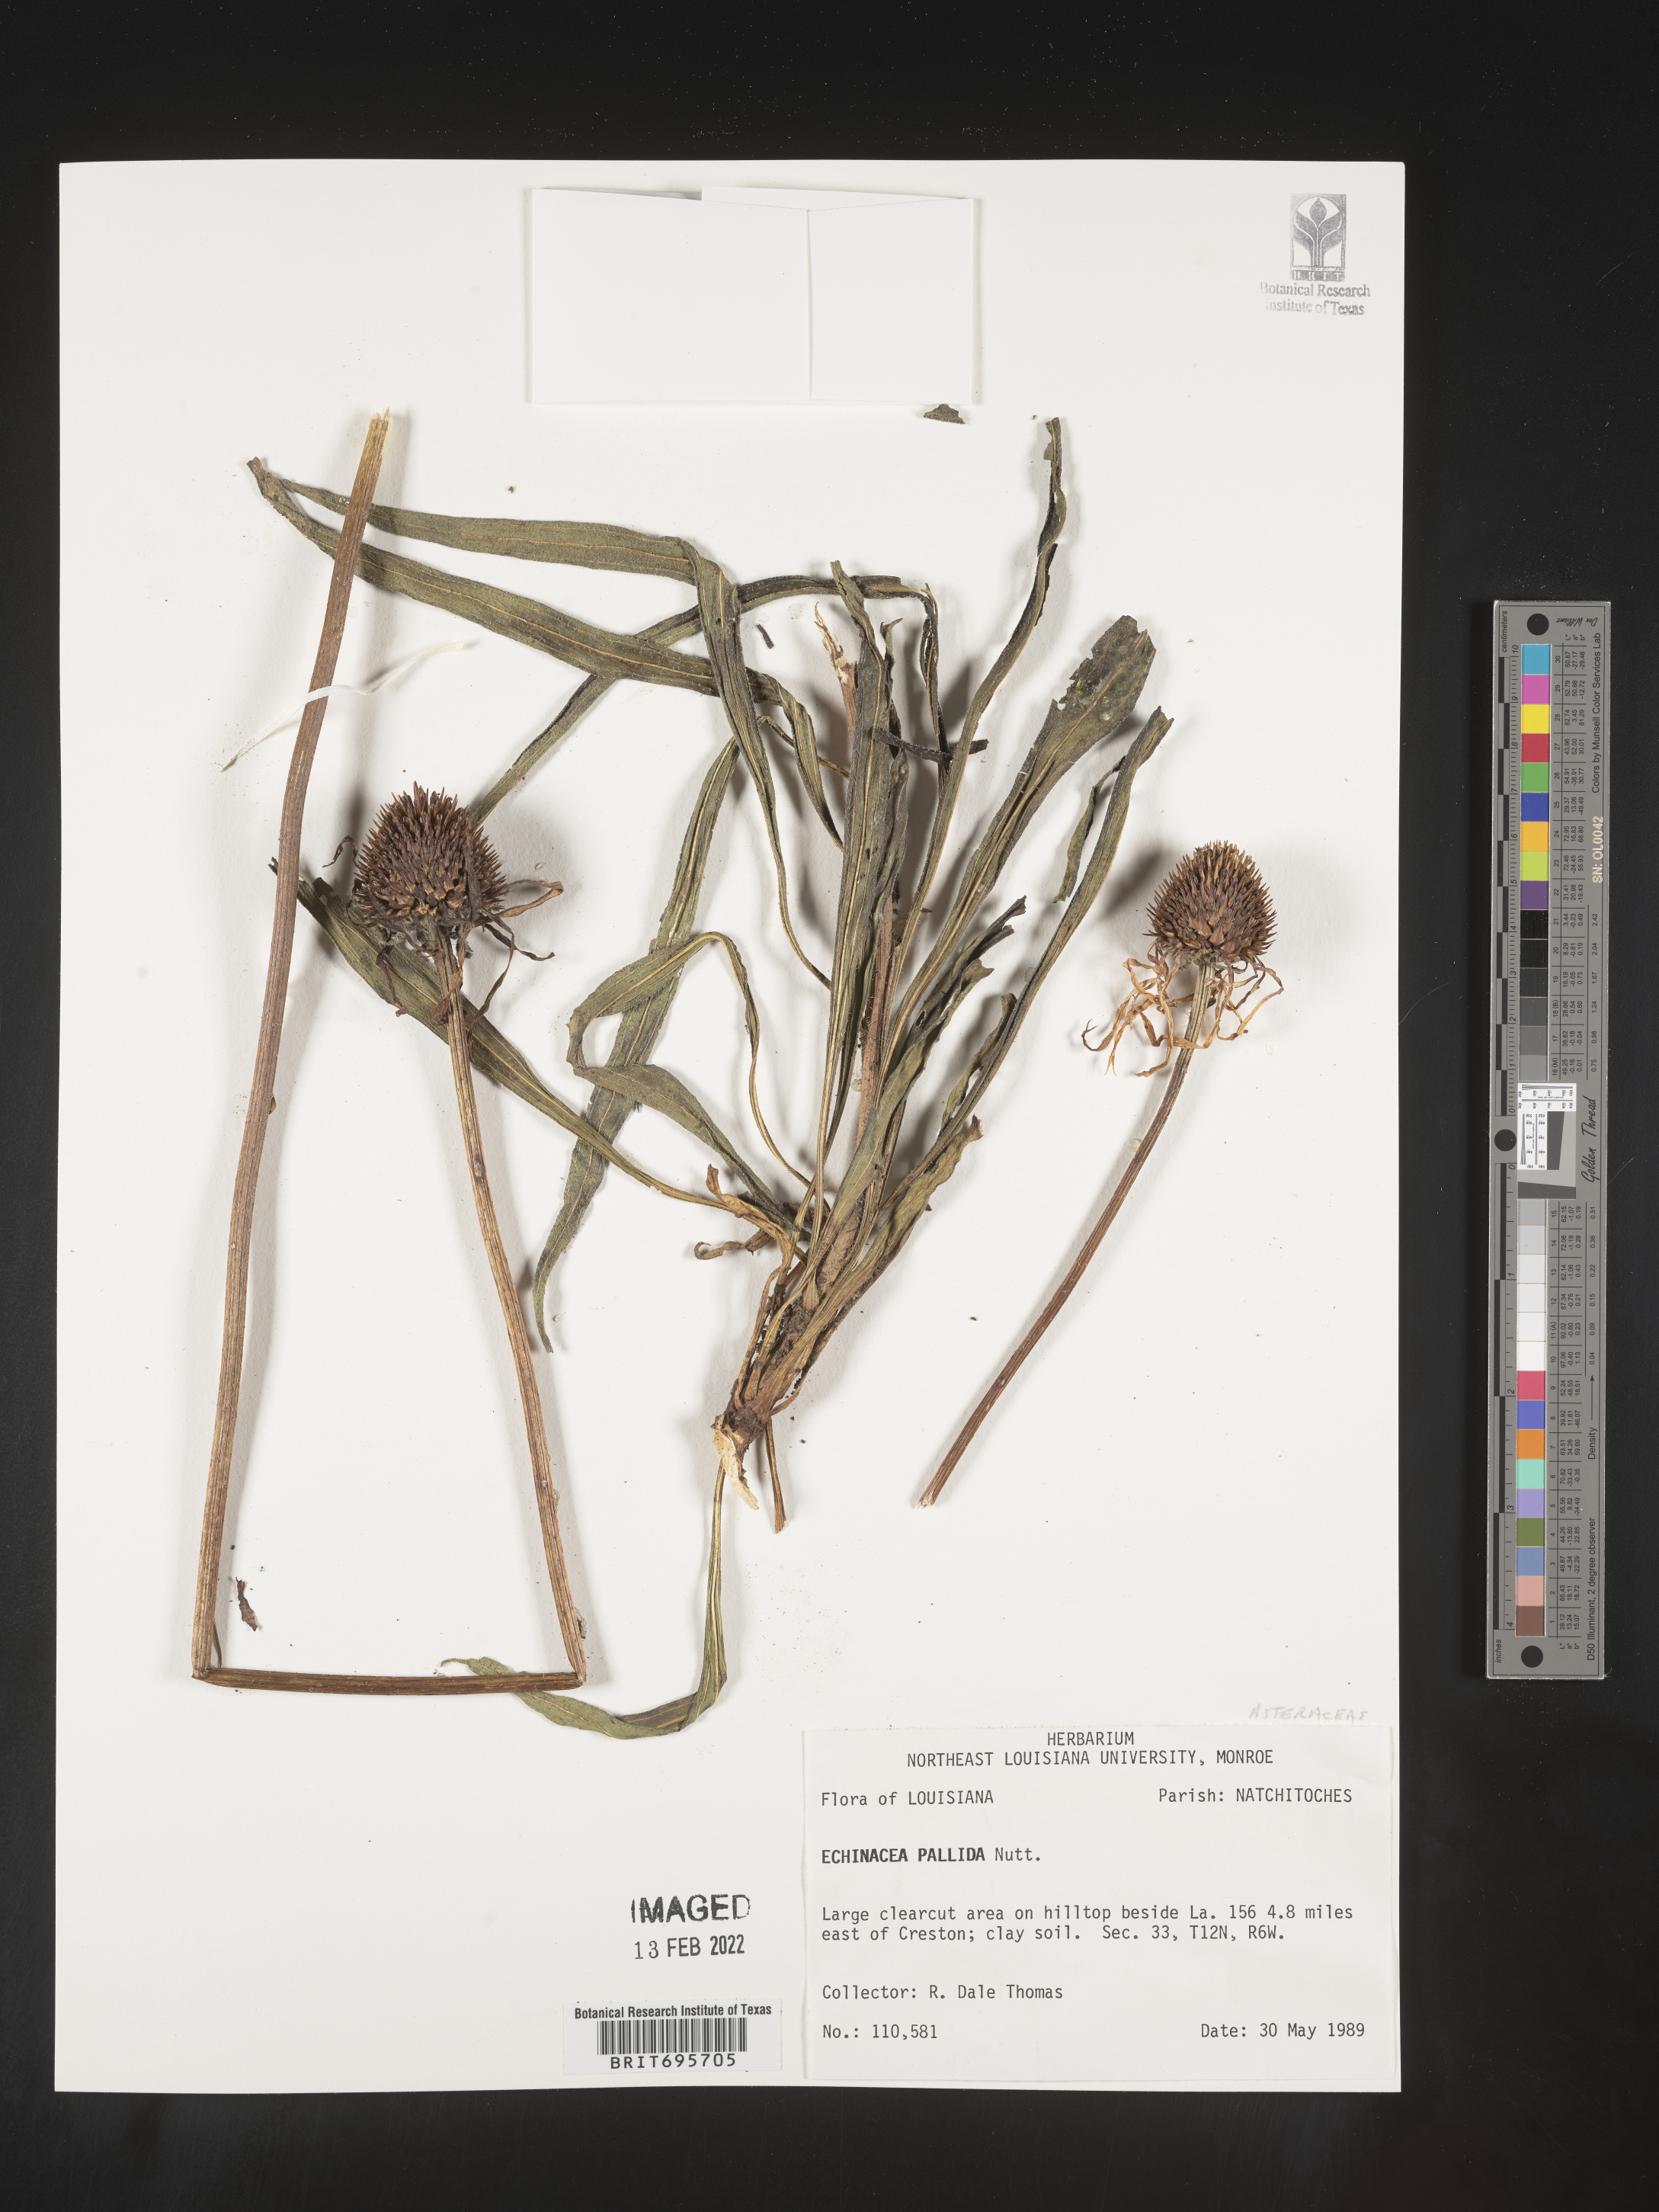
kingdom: Plantae
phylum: Tracheophyta
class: Magnoliopsida
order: Asterales
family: Asteraceae
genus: Echinacea
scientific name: Echinacea pallida
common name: Pale echinacea
